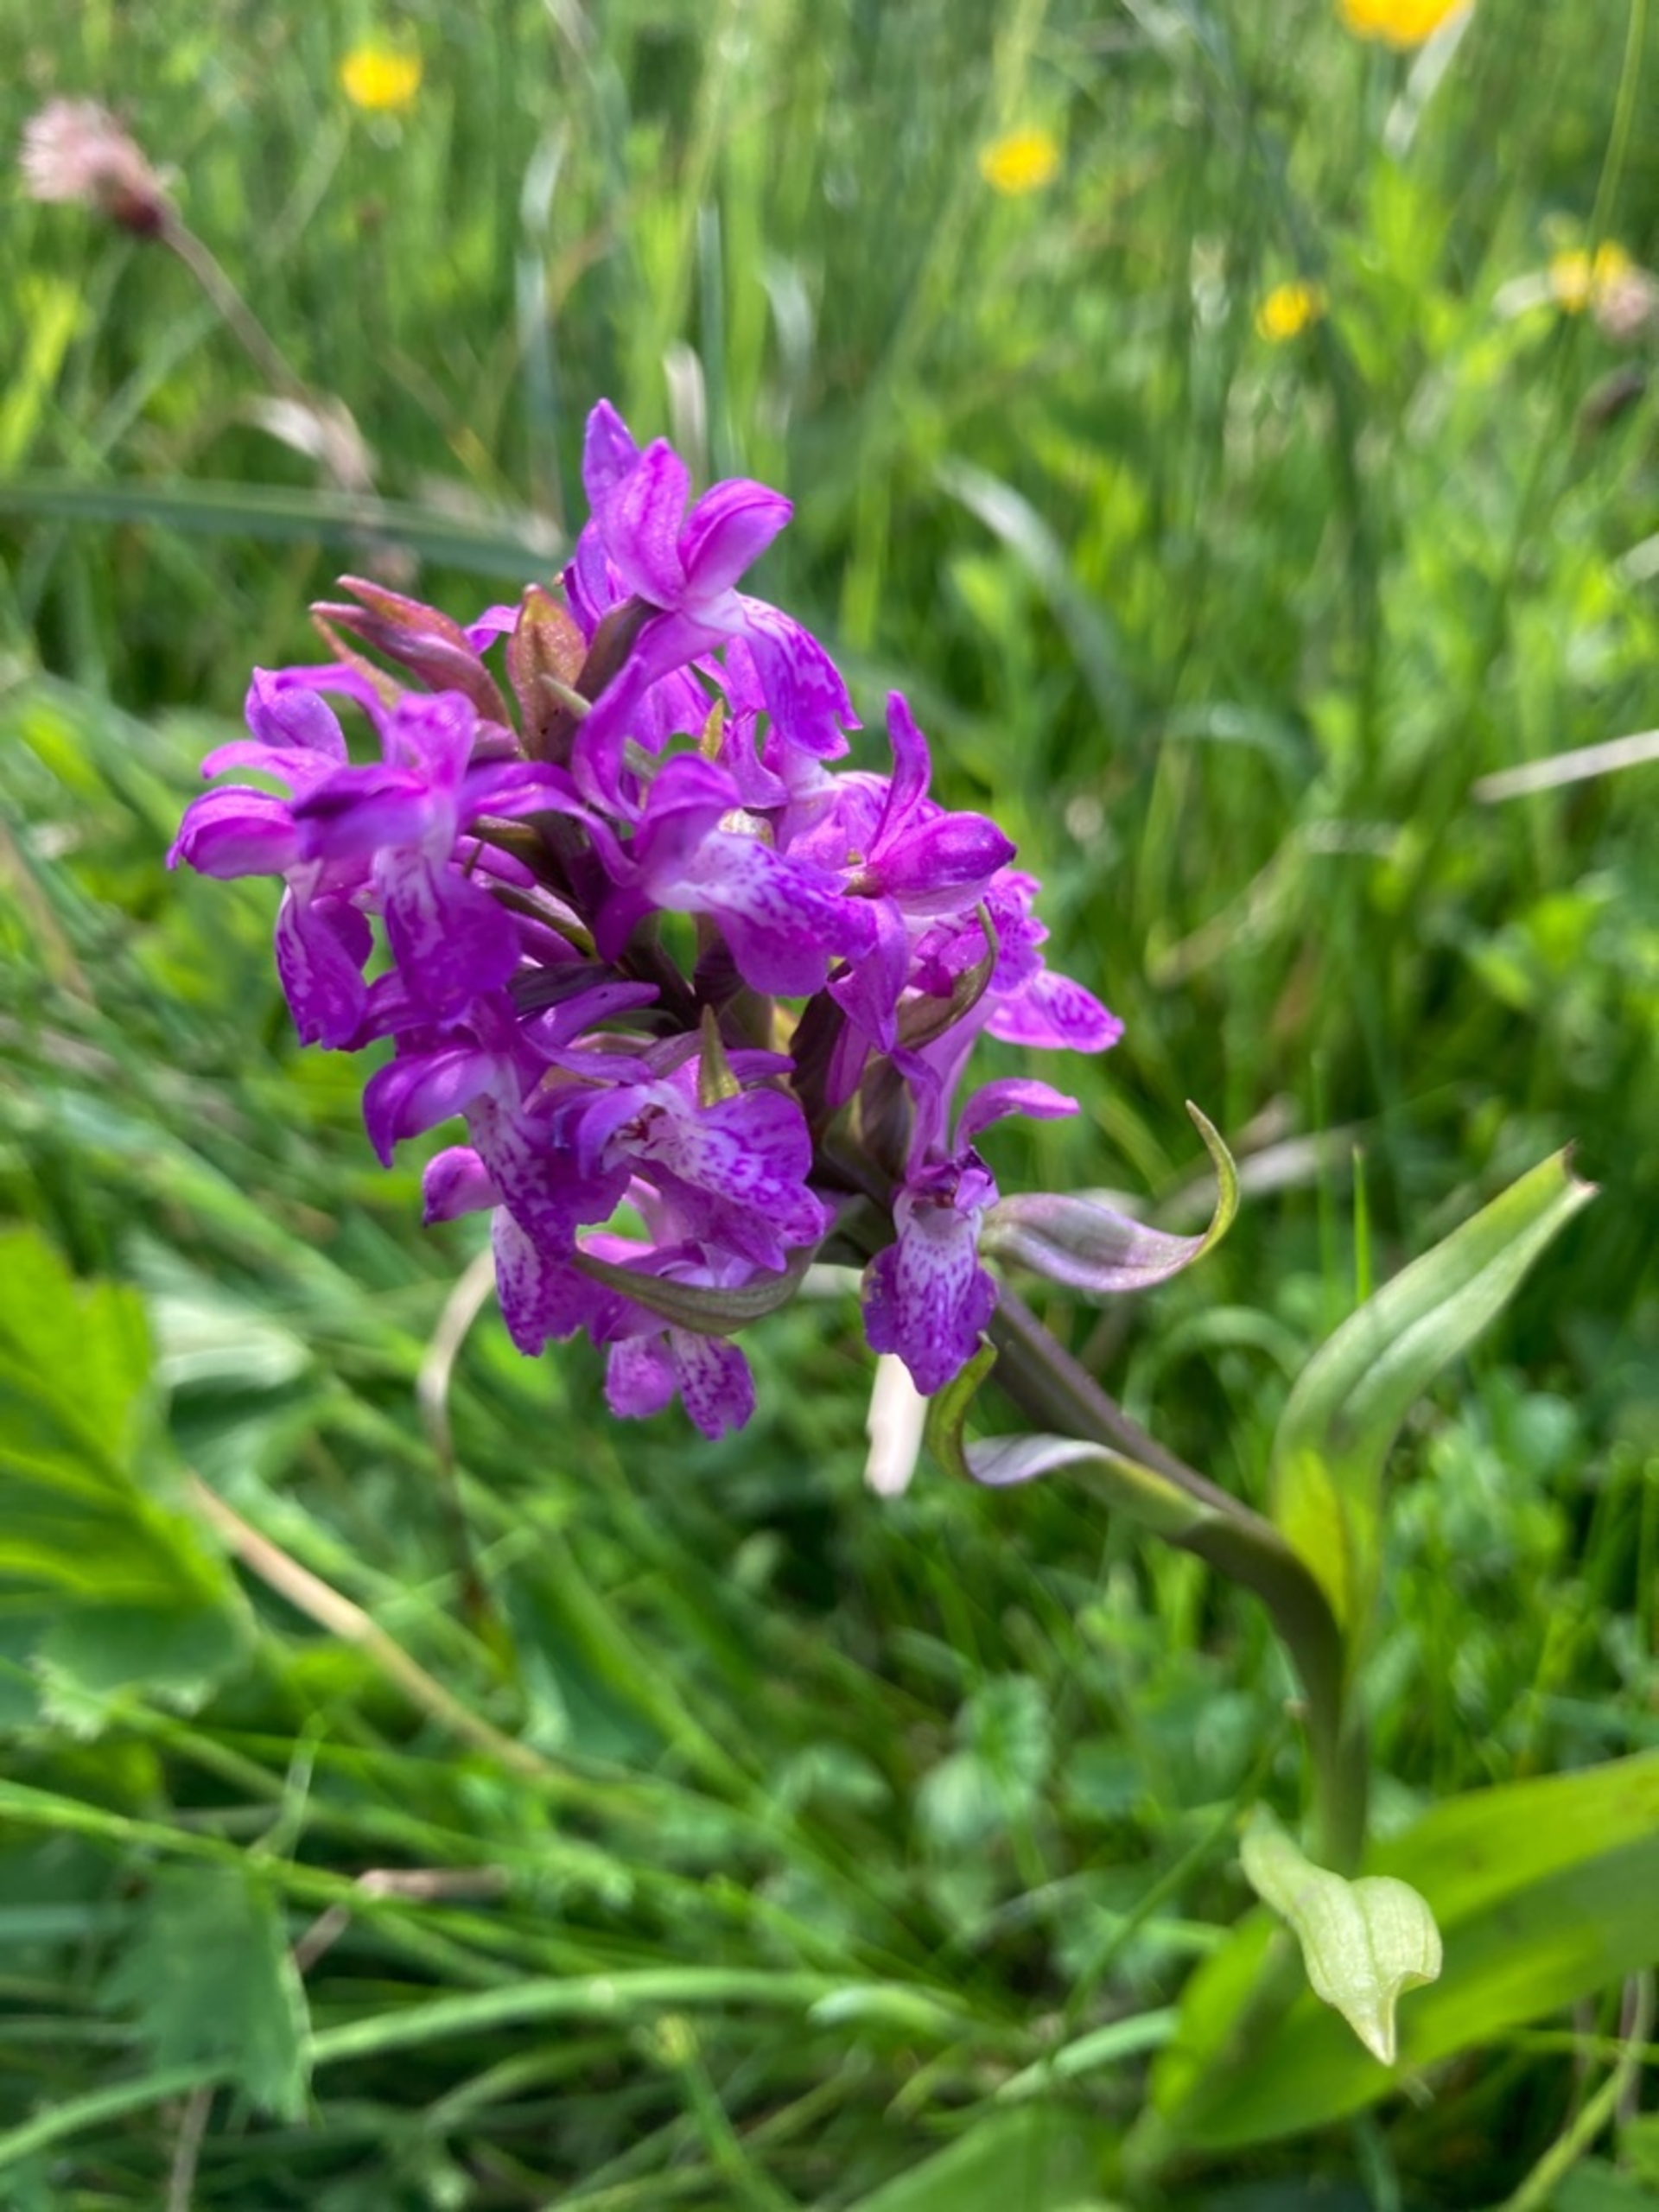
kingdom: Plantae
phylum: Tracheophyta
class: Liliopsida
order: Asparagales
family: Orchidaceae
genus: Dactylorhiza
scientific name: Dactylorhiza majalis
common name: Maj-gøgeurt
